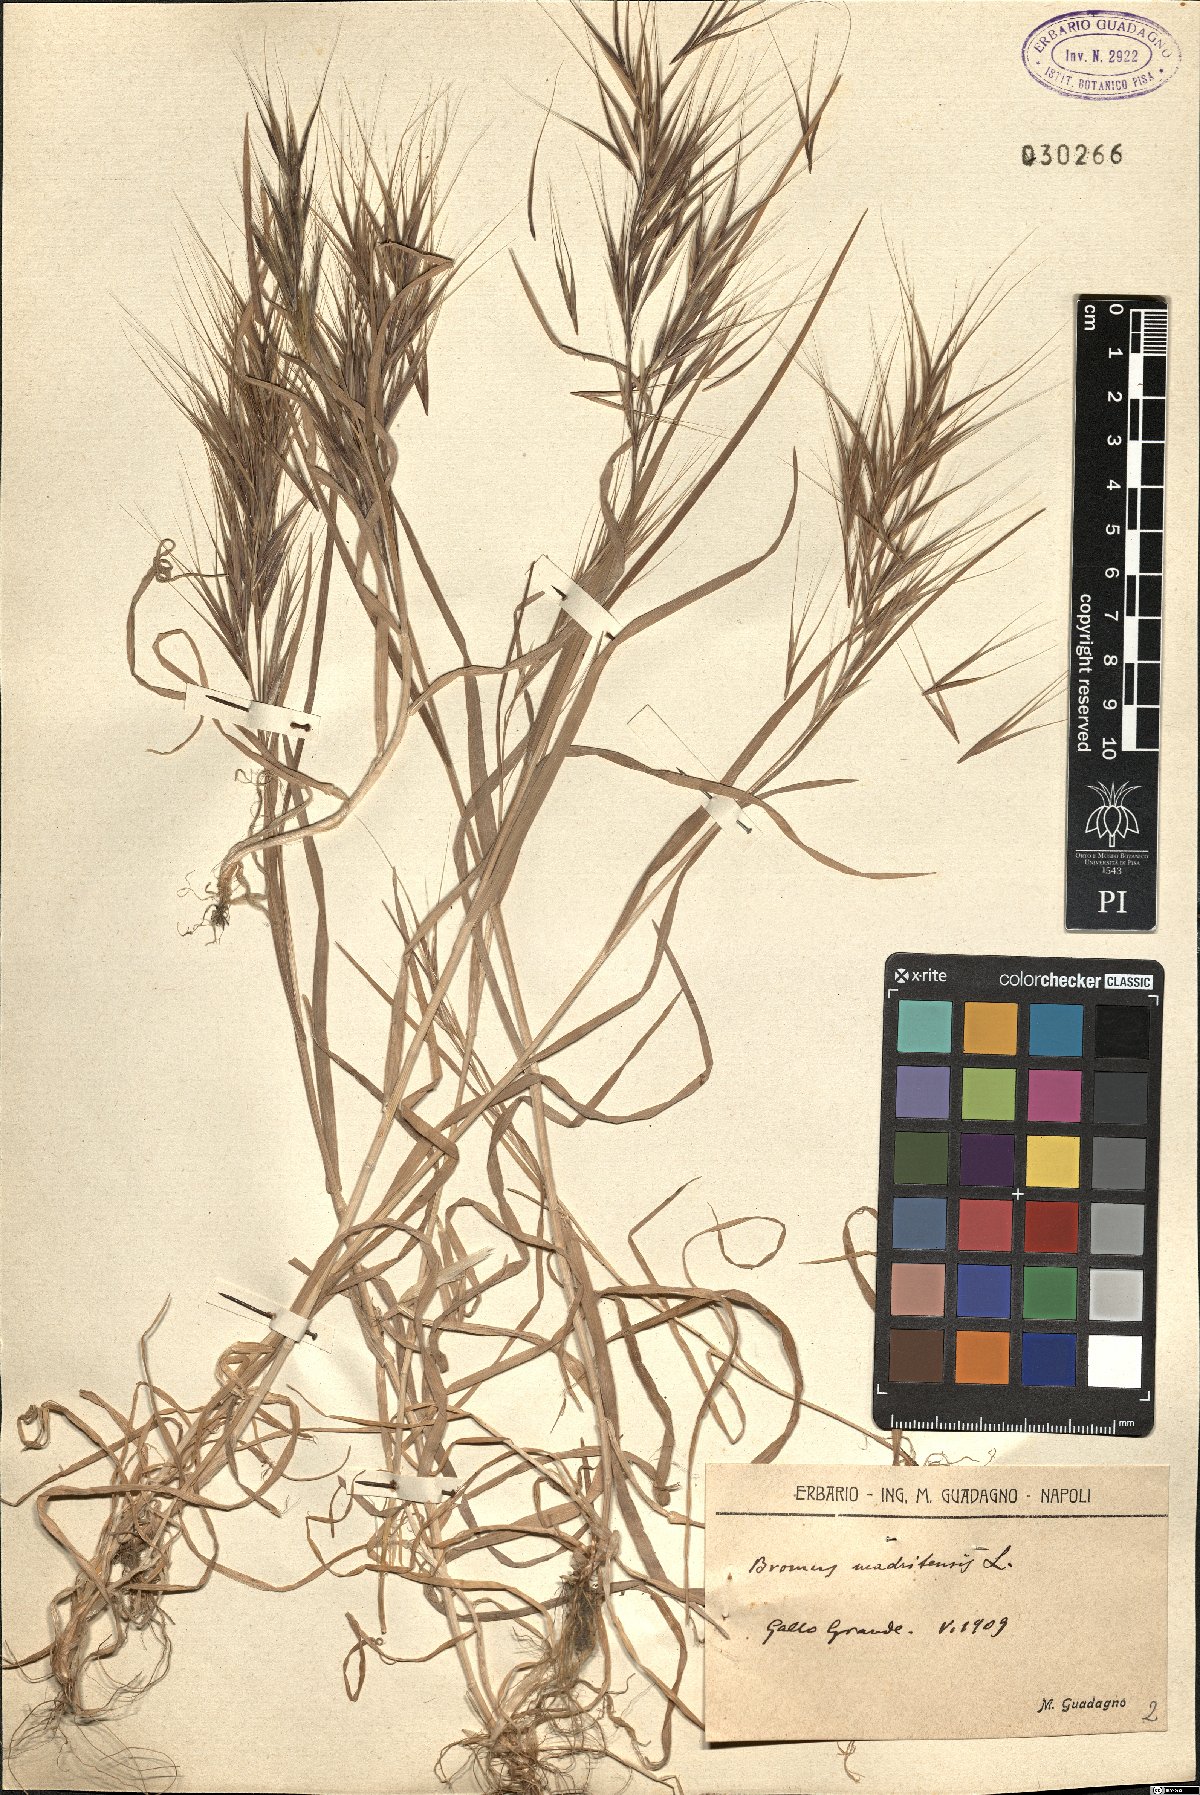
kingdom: Plantae
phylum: Tracheophyta
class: Liliopsida
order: Poales
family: Poaceae
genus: Bromus
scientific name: Bromus madritensis
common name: Compact brome
